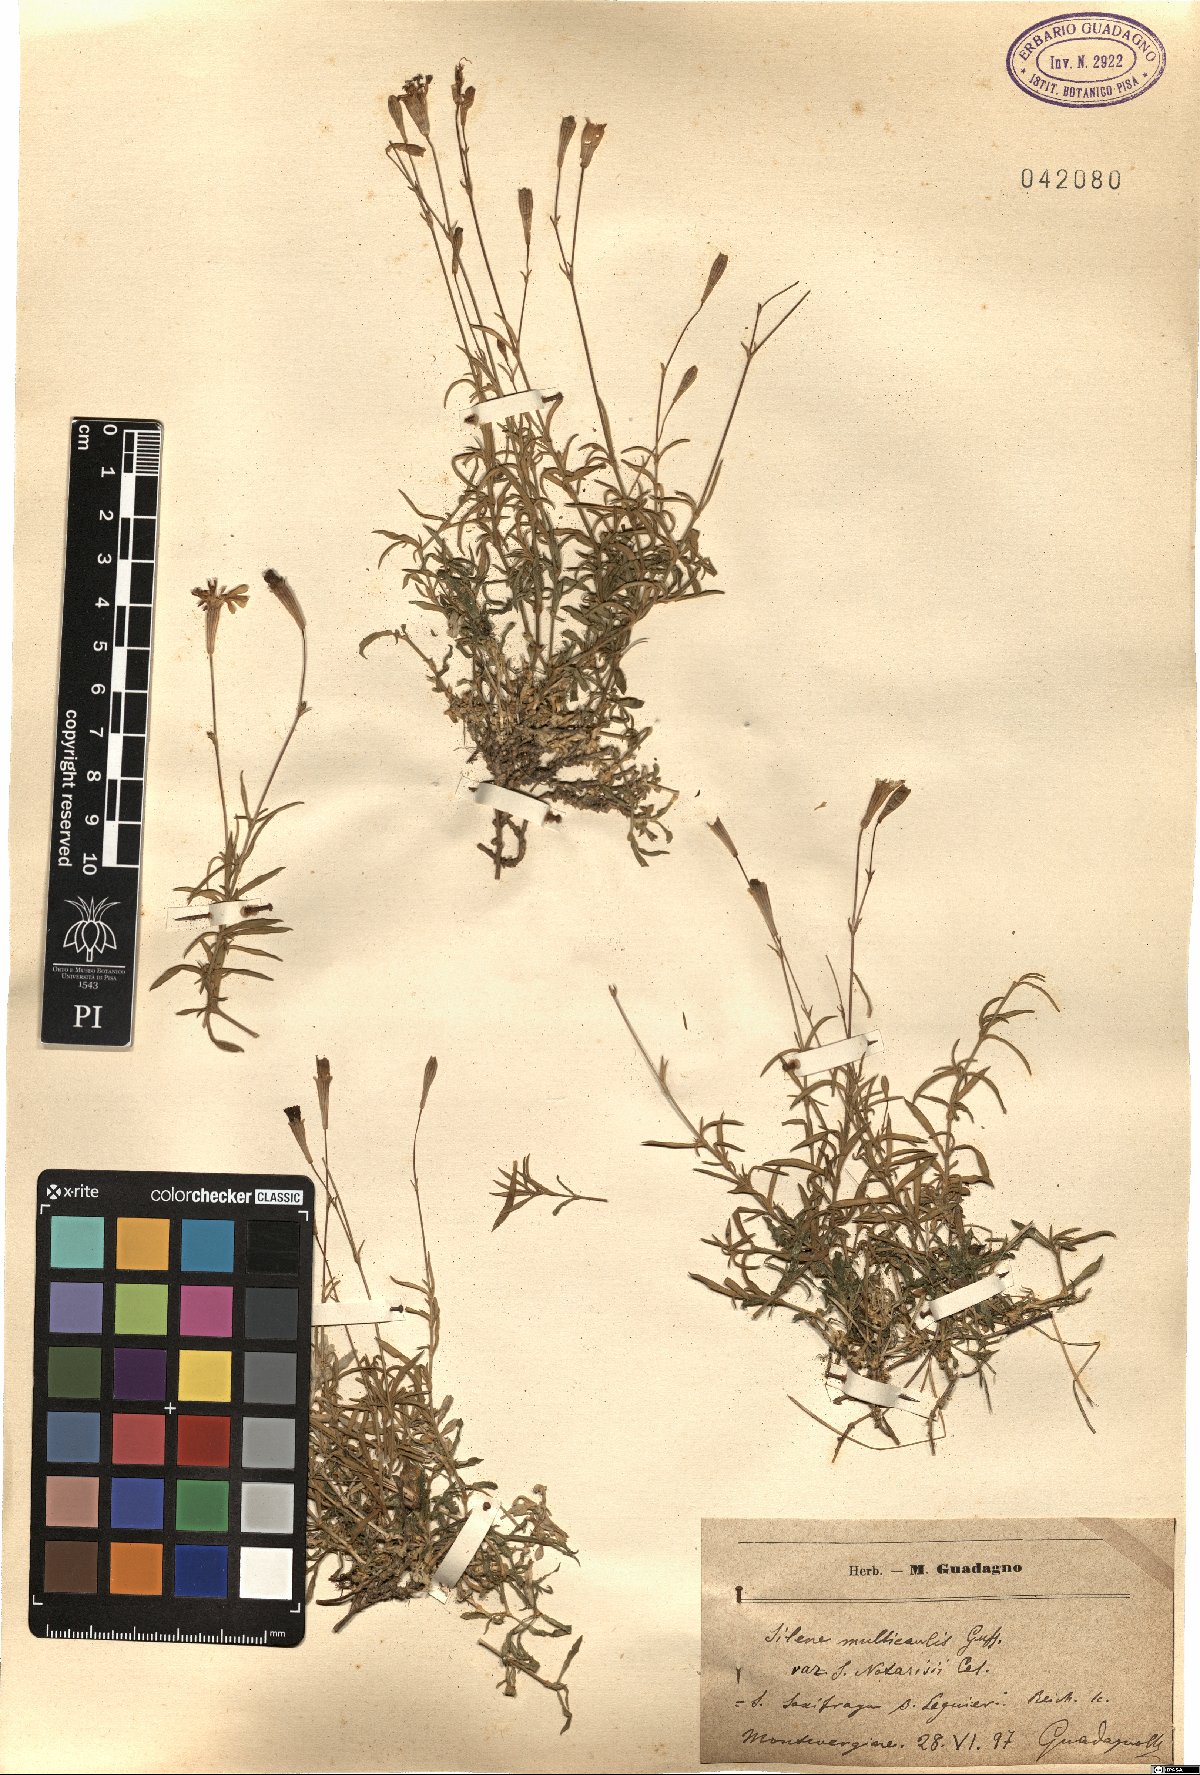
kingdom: Plantae
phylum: Tracheophyta
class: Magnoliopsida
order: Caryophyllales
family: Caryophyllaceae
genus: Silene
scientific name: Silene multicaulis
